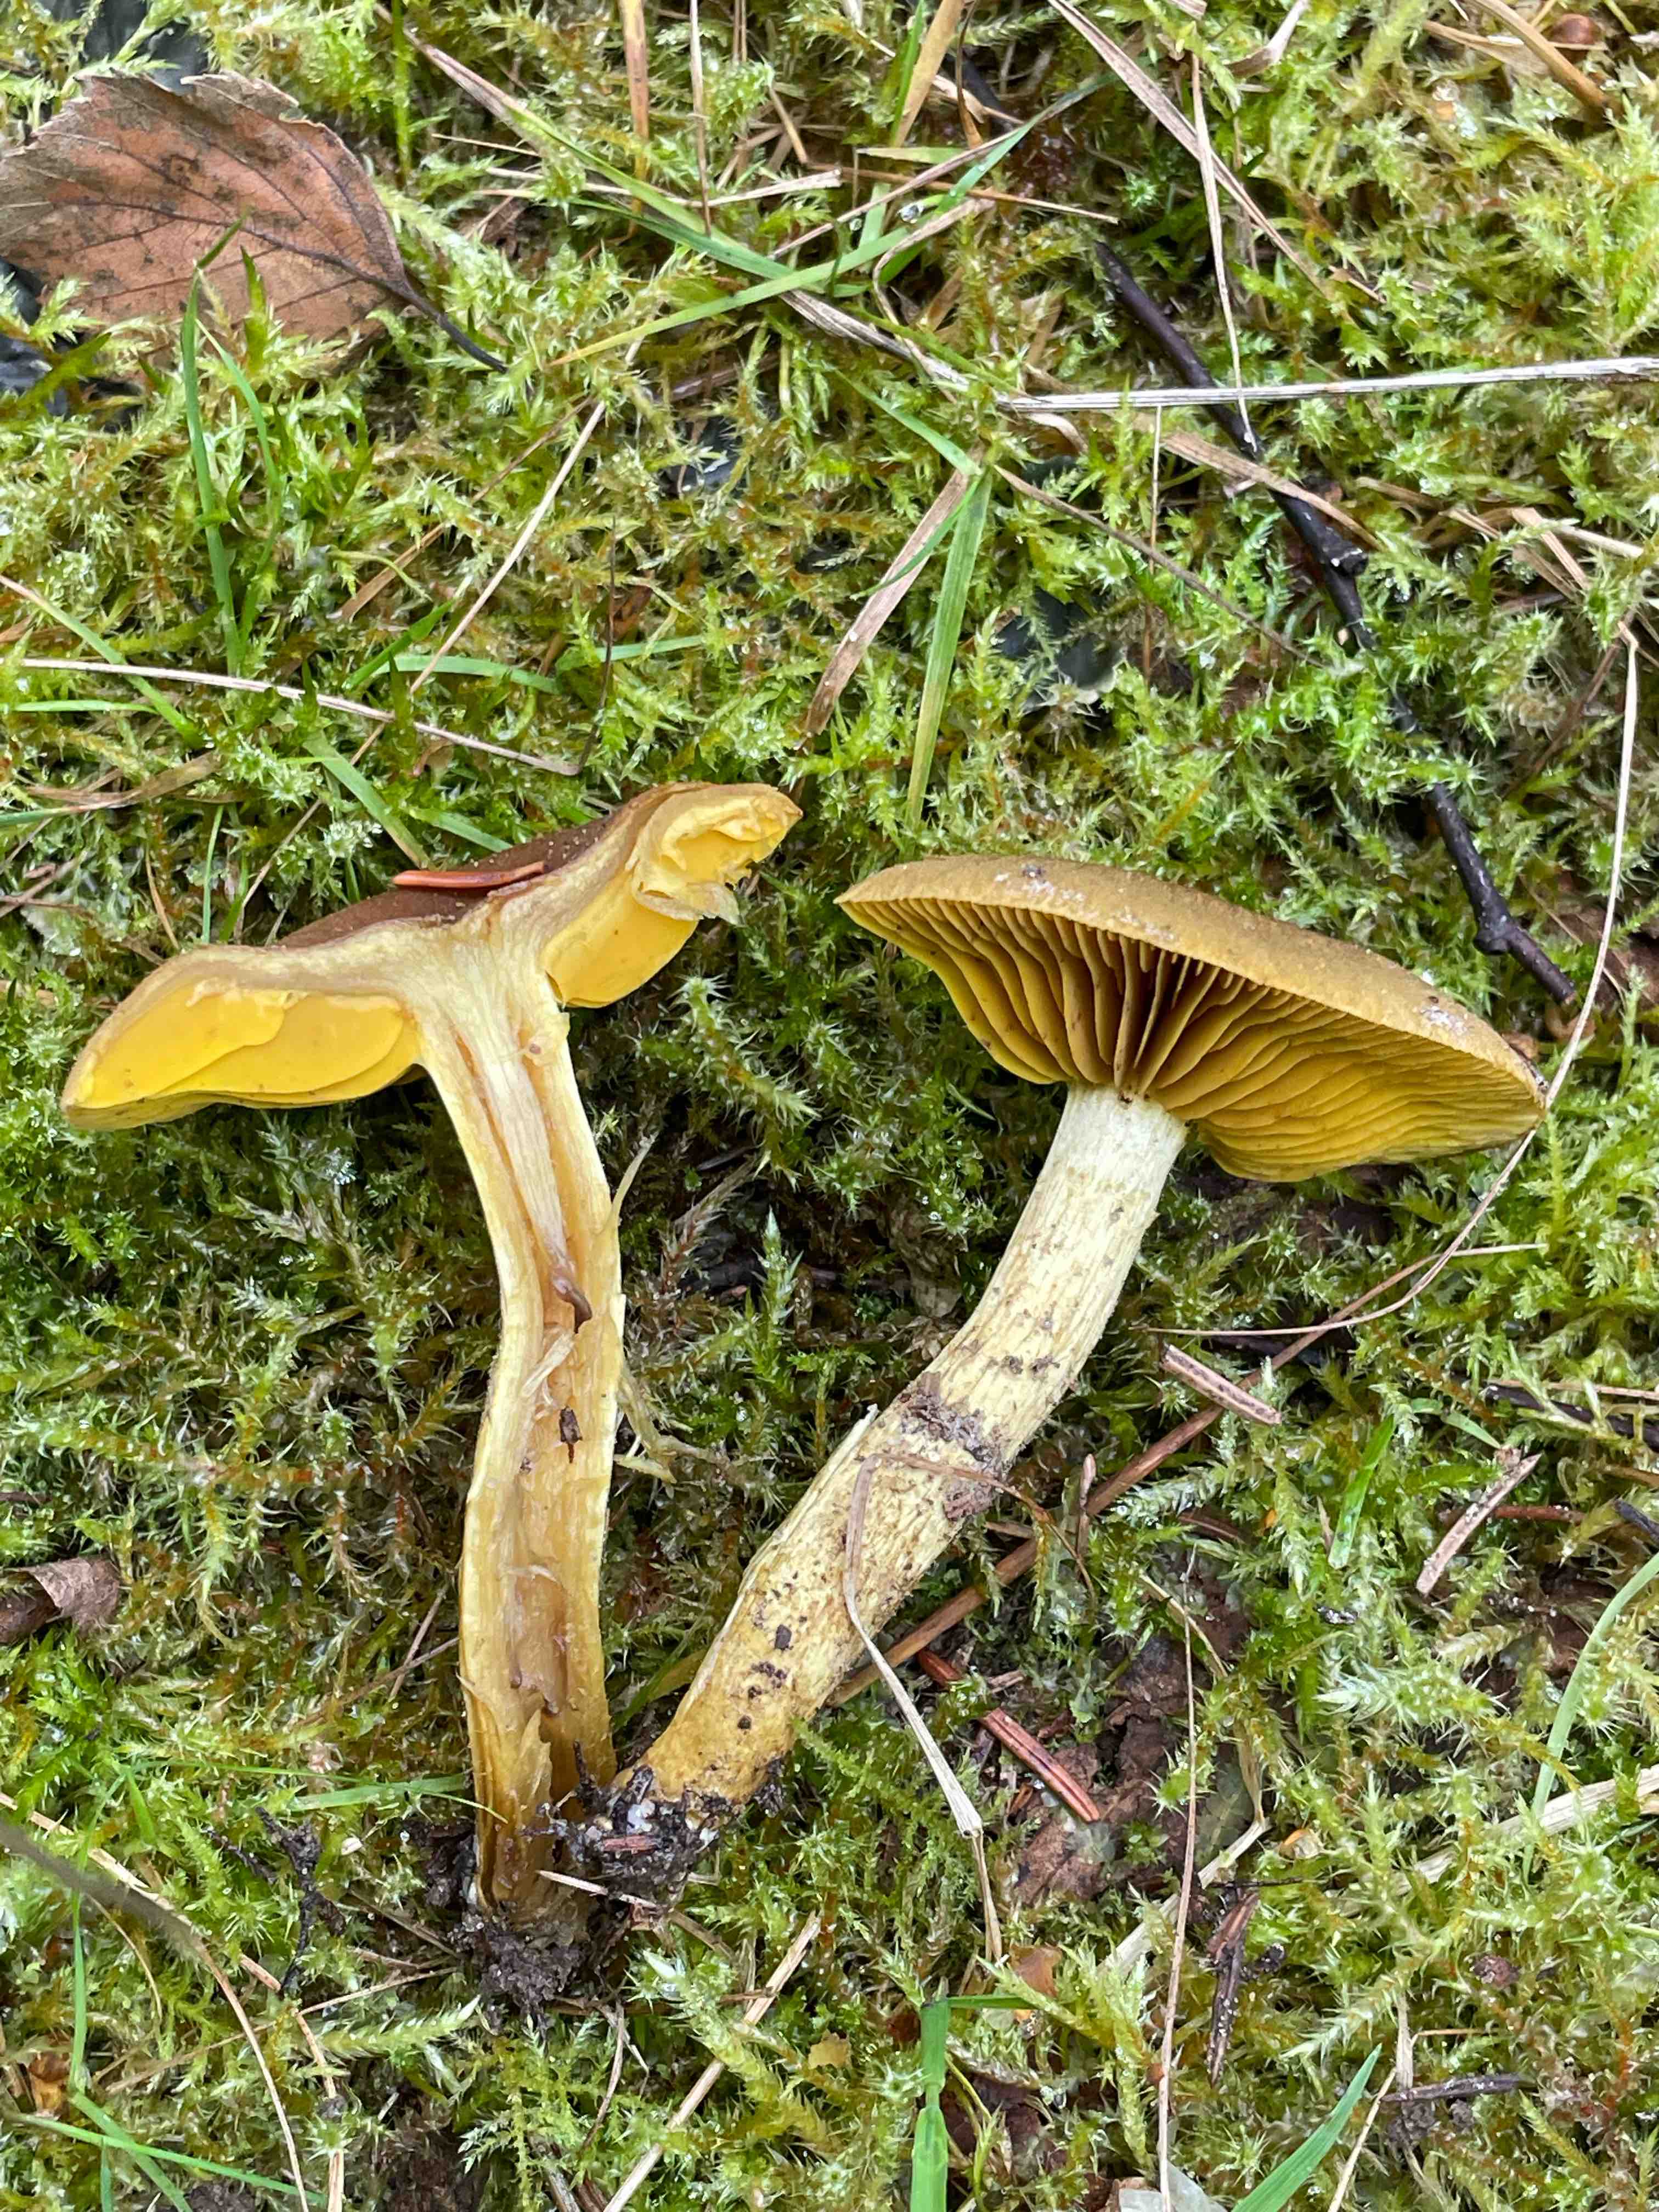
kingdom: Fungi
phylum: Basidiomycota
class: Agaricomycetes
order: Agaricales
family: Cortinariaceae
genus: Cortinarius
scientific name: Cortinarius
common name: gulbladet slørhat
